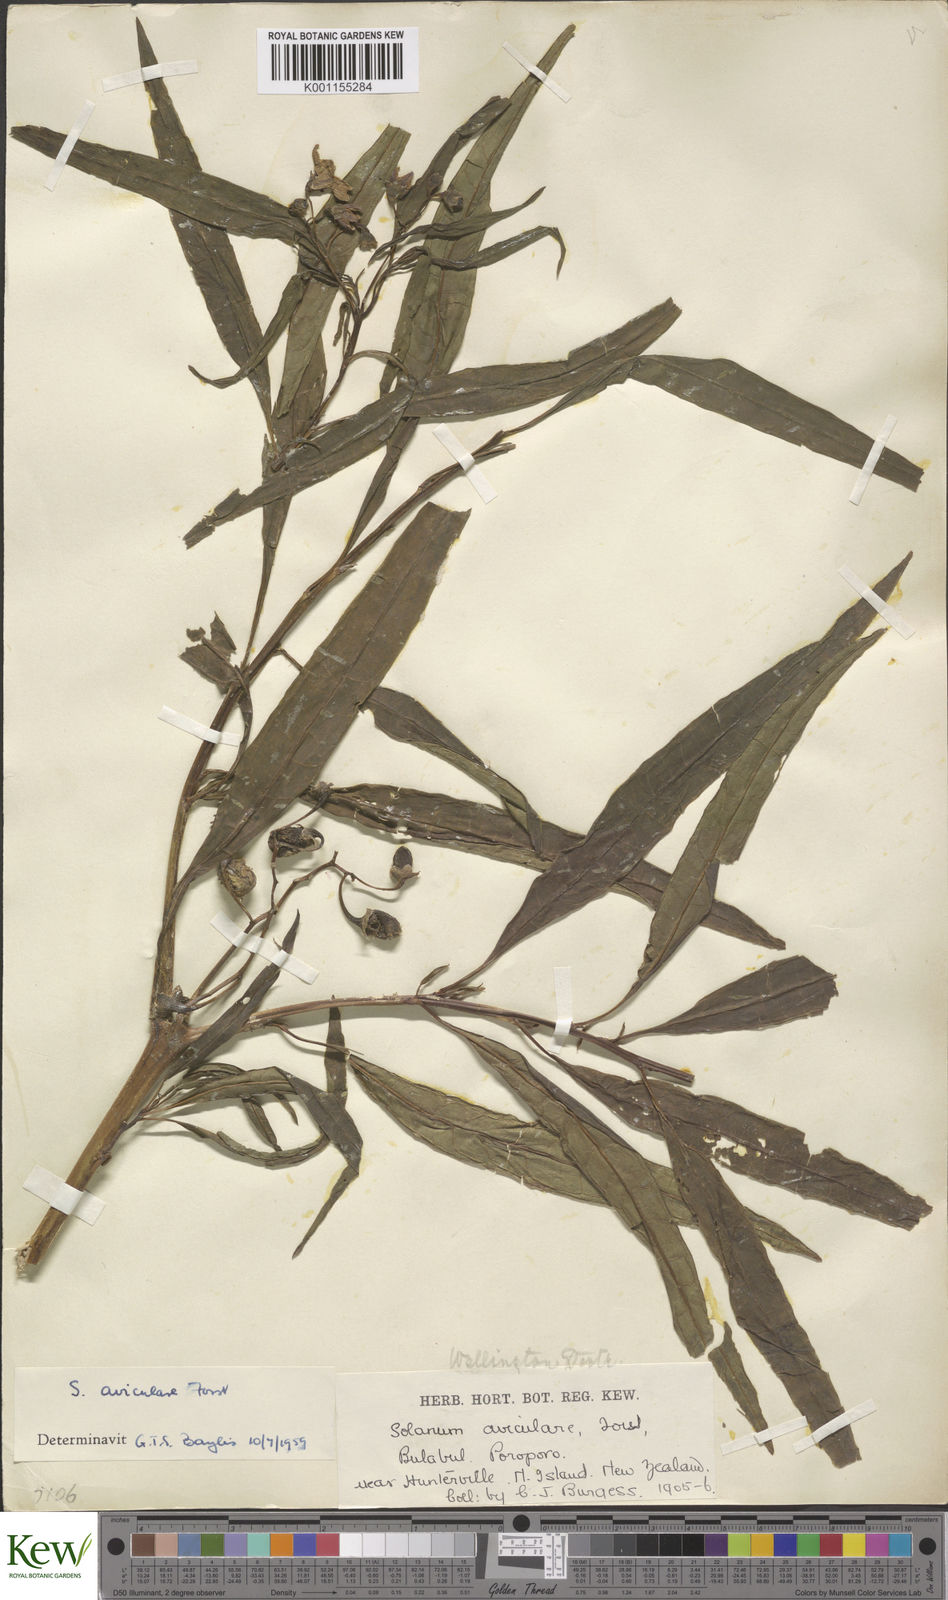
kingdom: Plantae
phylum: Tracheophyta
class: Magnoliopsida
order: Solanales
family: Solanaceae
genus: Solanum
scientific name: Solanum aviculare
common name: New zealand nightshade
